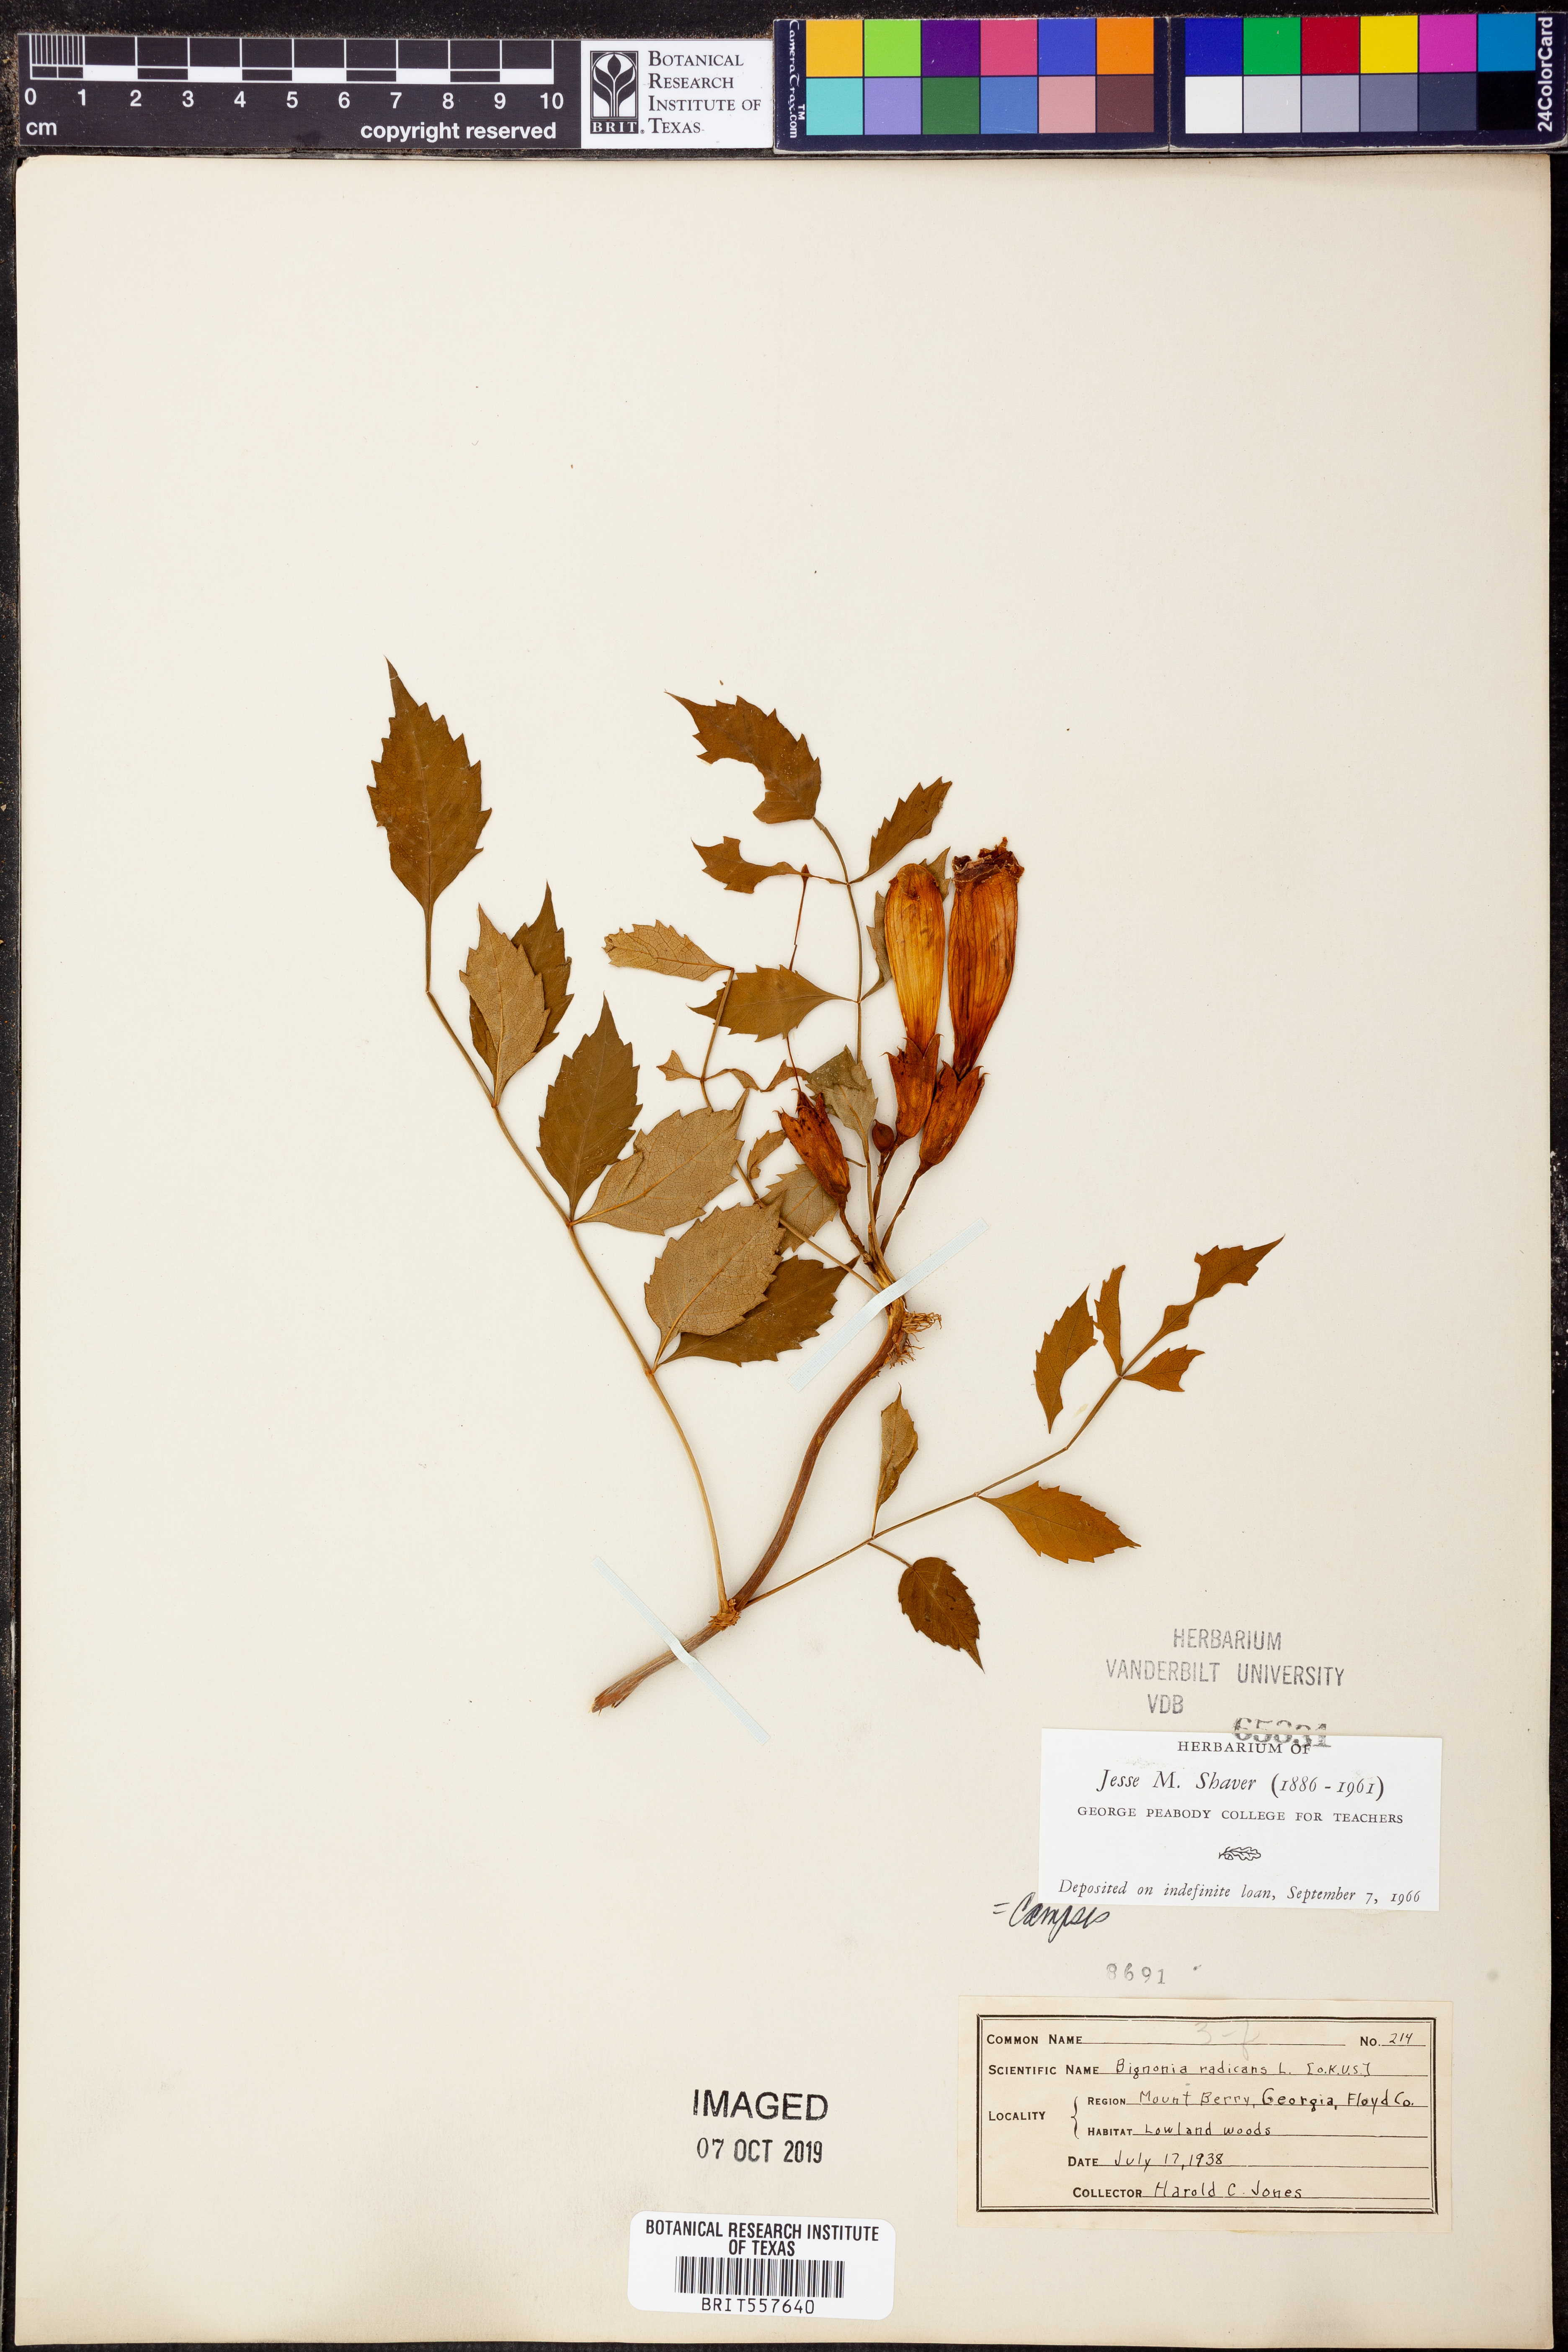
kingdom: Plantae
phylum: Tracheophyta
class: Magnoliopsida
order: Lamiales
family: Bignoniaceae
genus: Campsis
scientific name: Campsis radicans
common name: Trumpet-creeper
